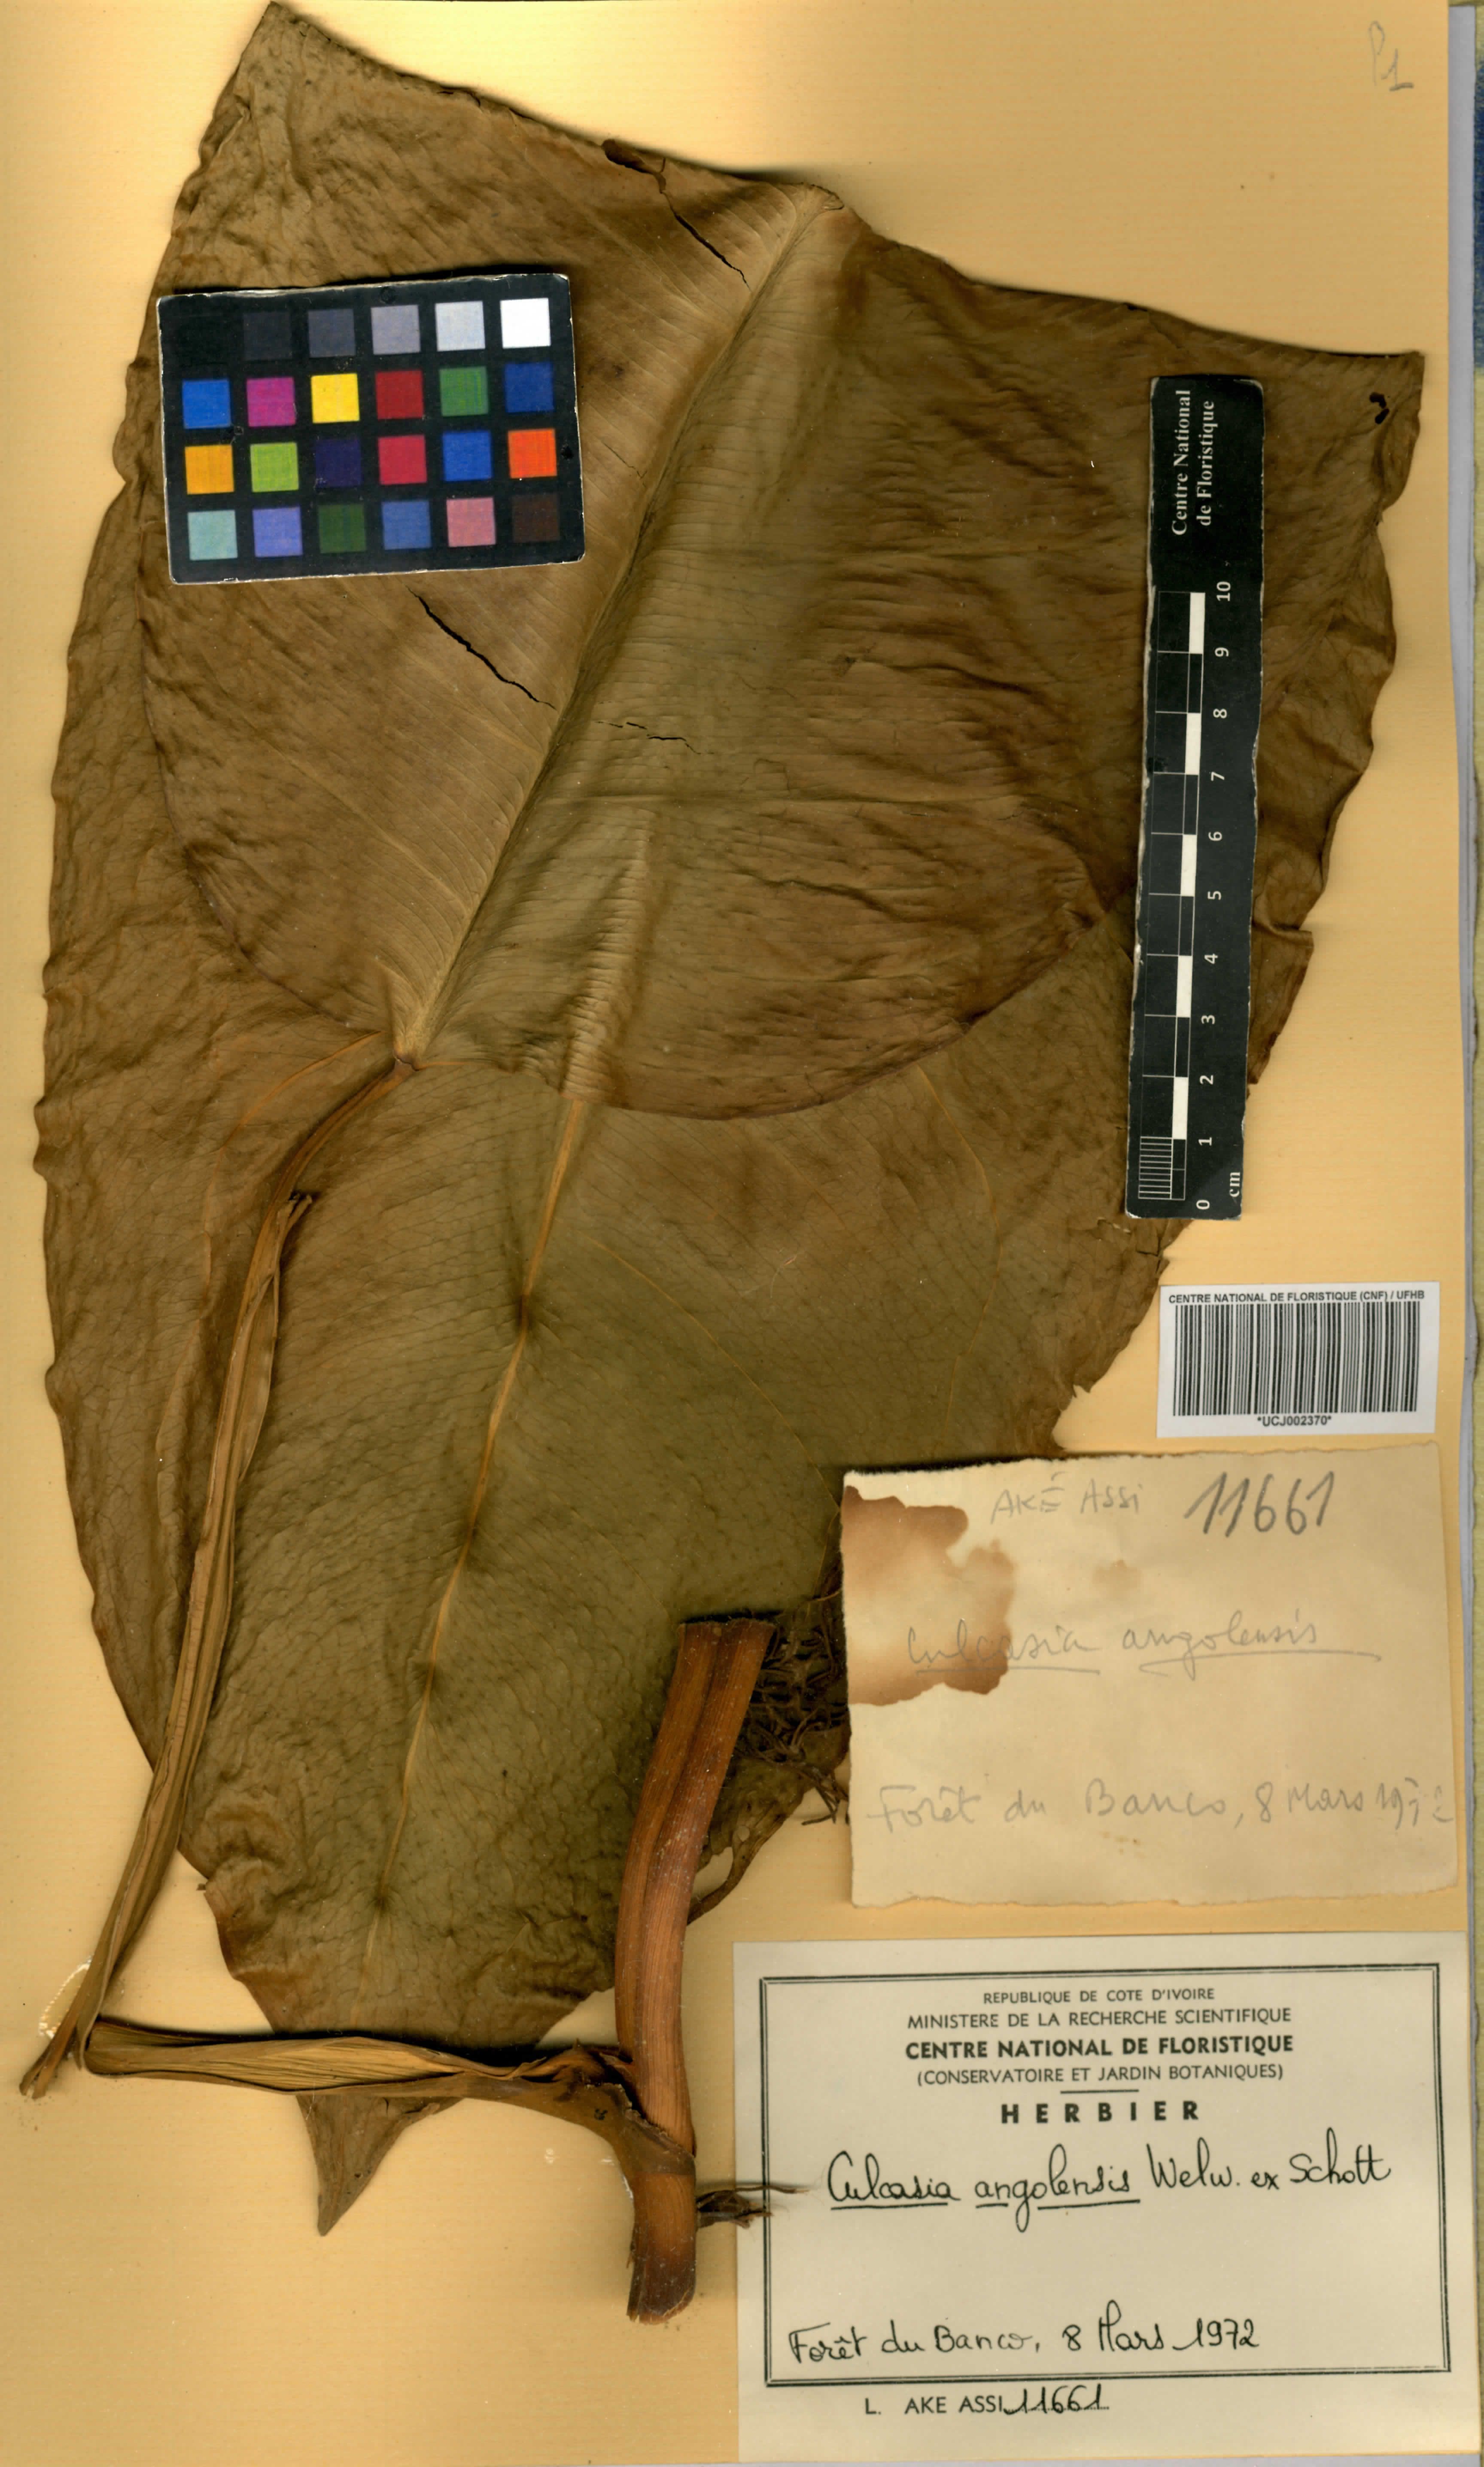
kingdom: Plantae
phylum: Tracheophyta
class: Liliopsida
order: Alismatales
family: Araceae
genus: Culcasia
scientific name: Culcasia angolensis
